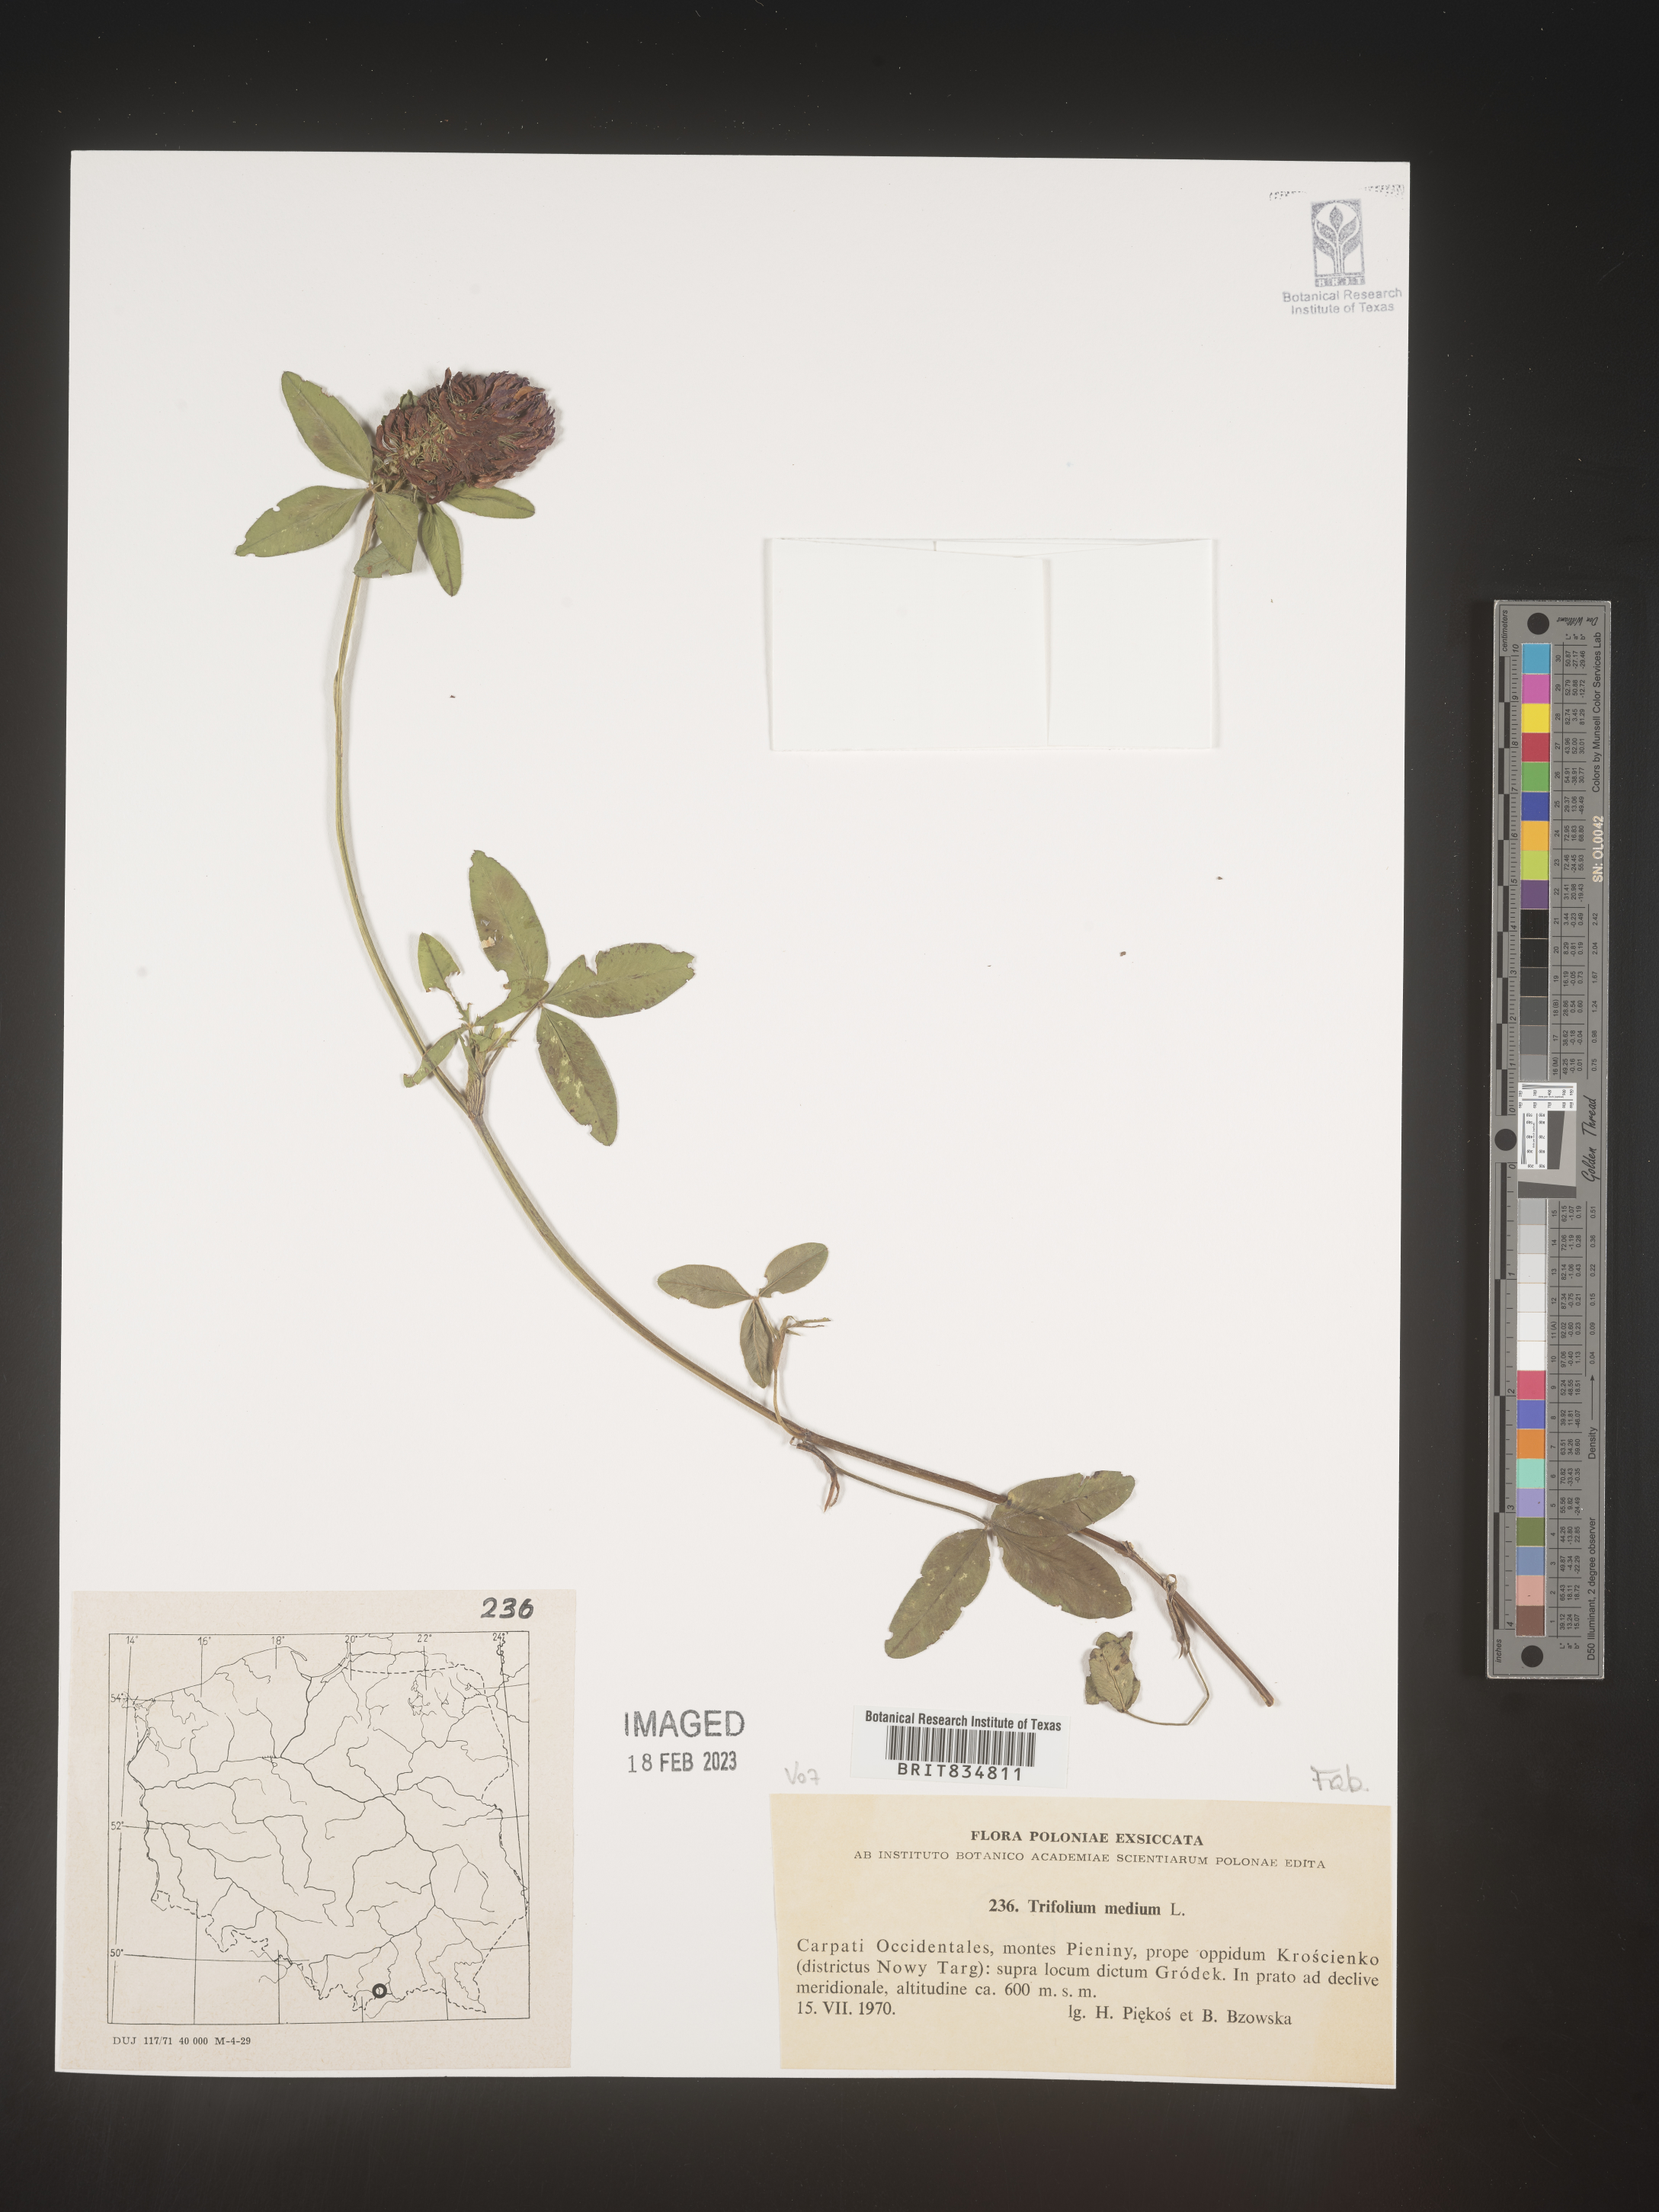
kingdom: Plantae
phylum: Tracheophyta
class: Magnoliopsida
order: Fabales
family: Fabaceae
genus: Trifolium
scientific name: Trifolium
